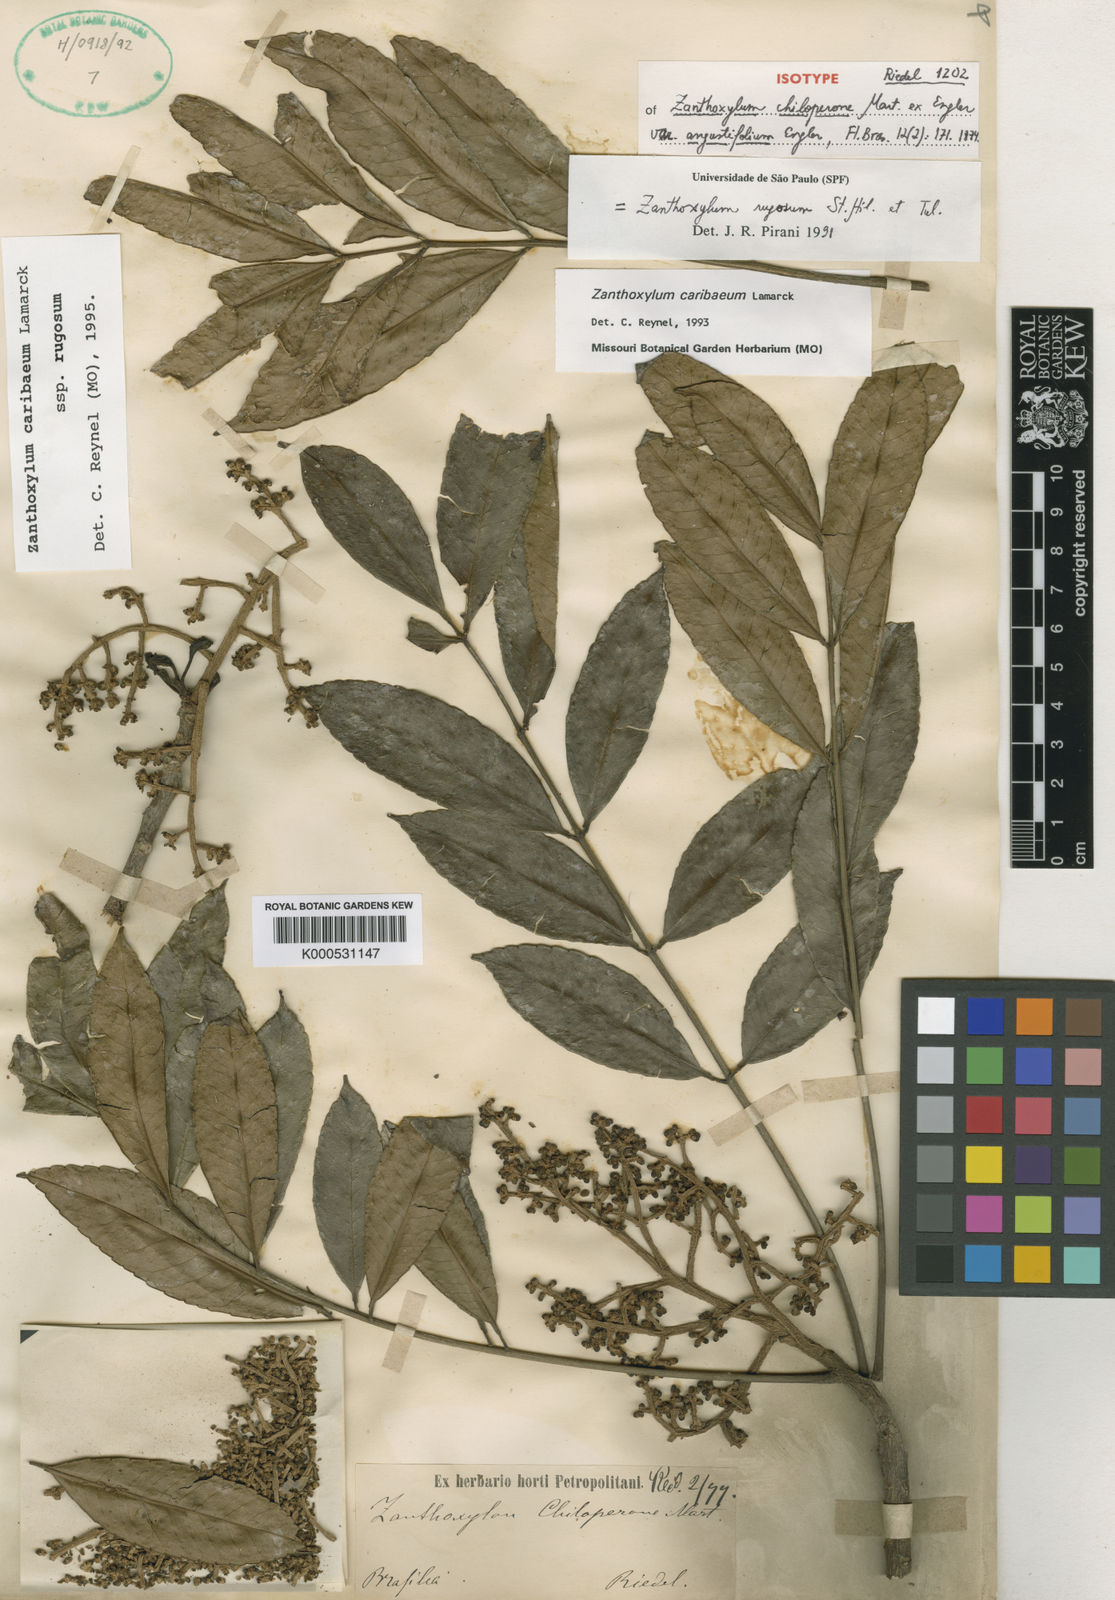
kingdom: Plantae
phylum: Tracheophyta
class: Magnoliopsida
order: Sapindales
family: Rutaceae
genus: Zanthoxylum
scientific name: Zanthoxylum caribaeum
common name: Prickly yellow
